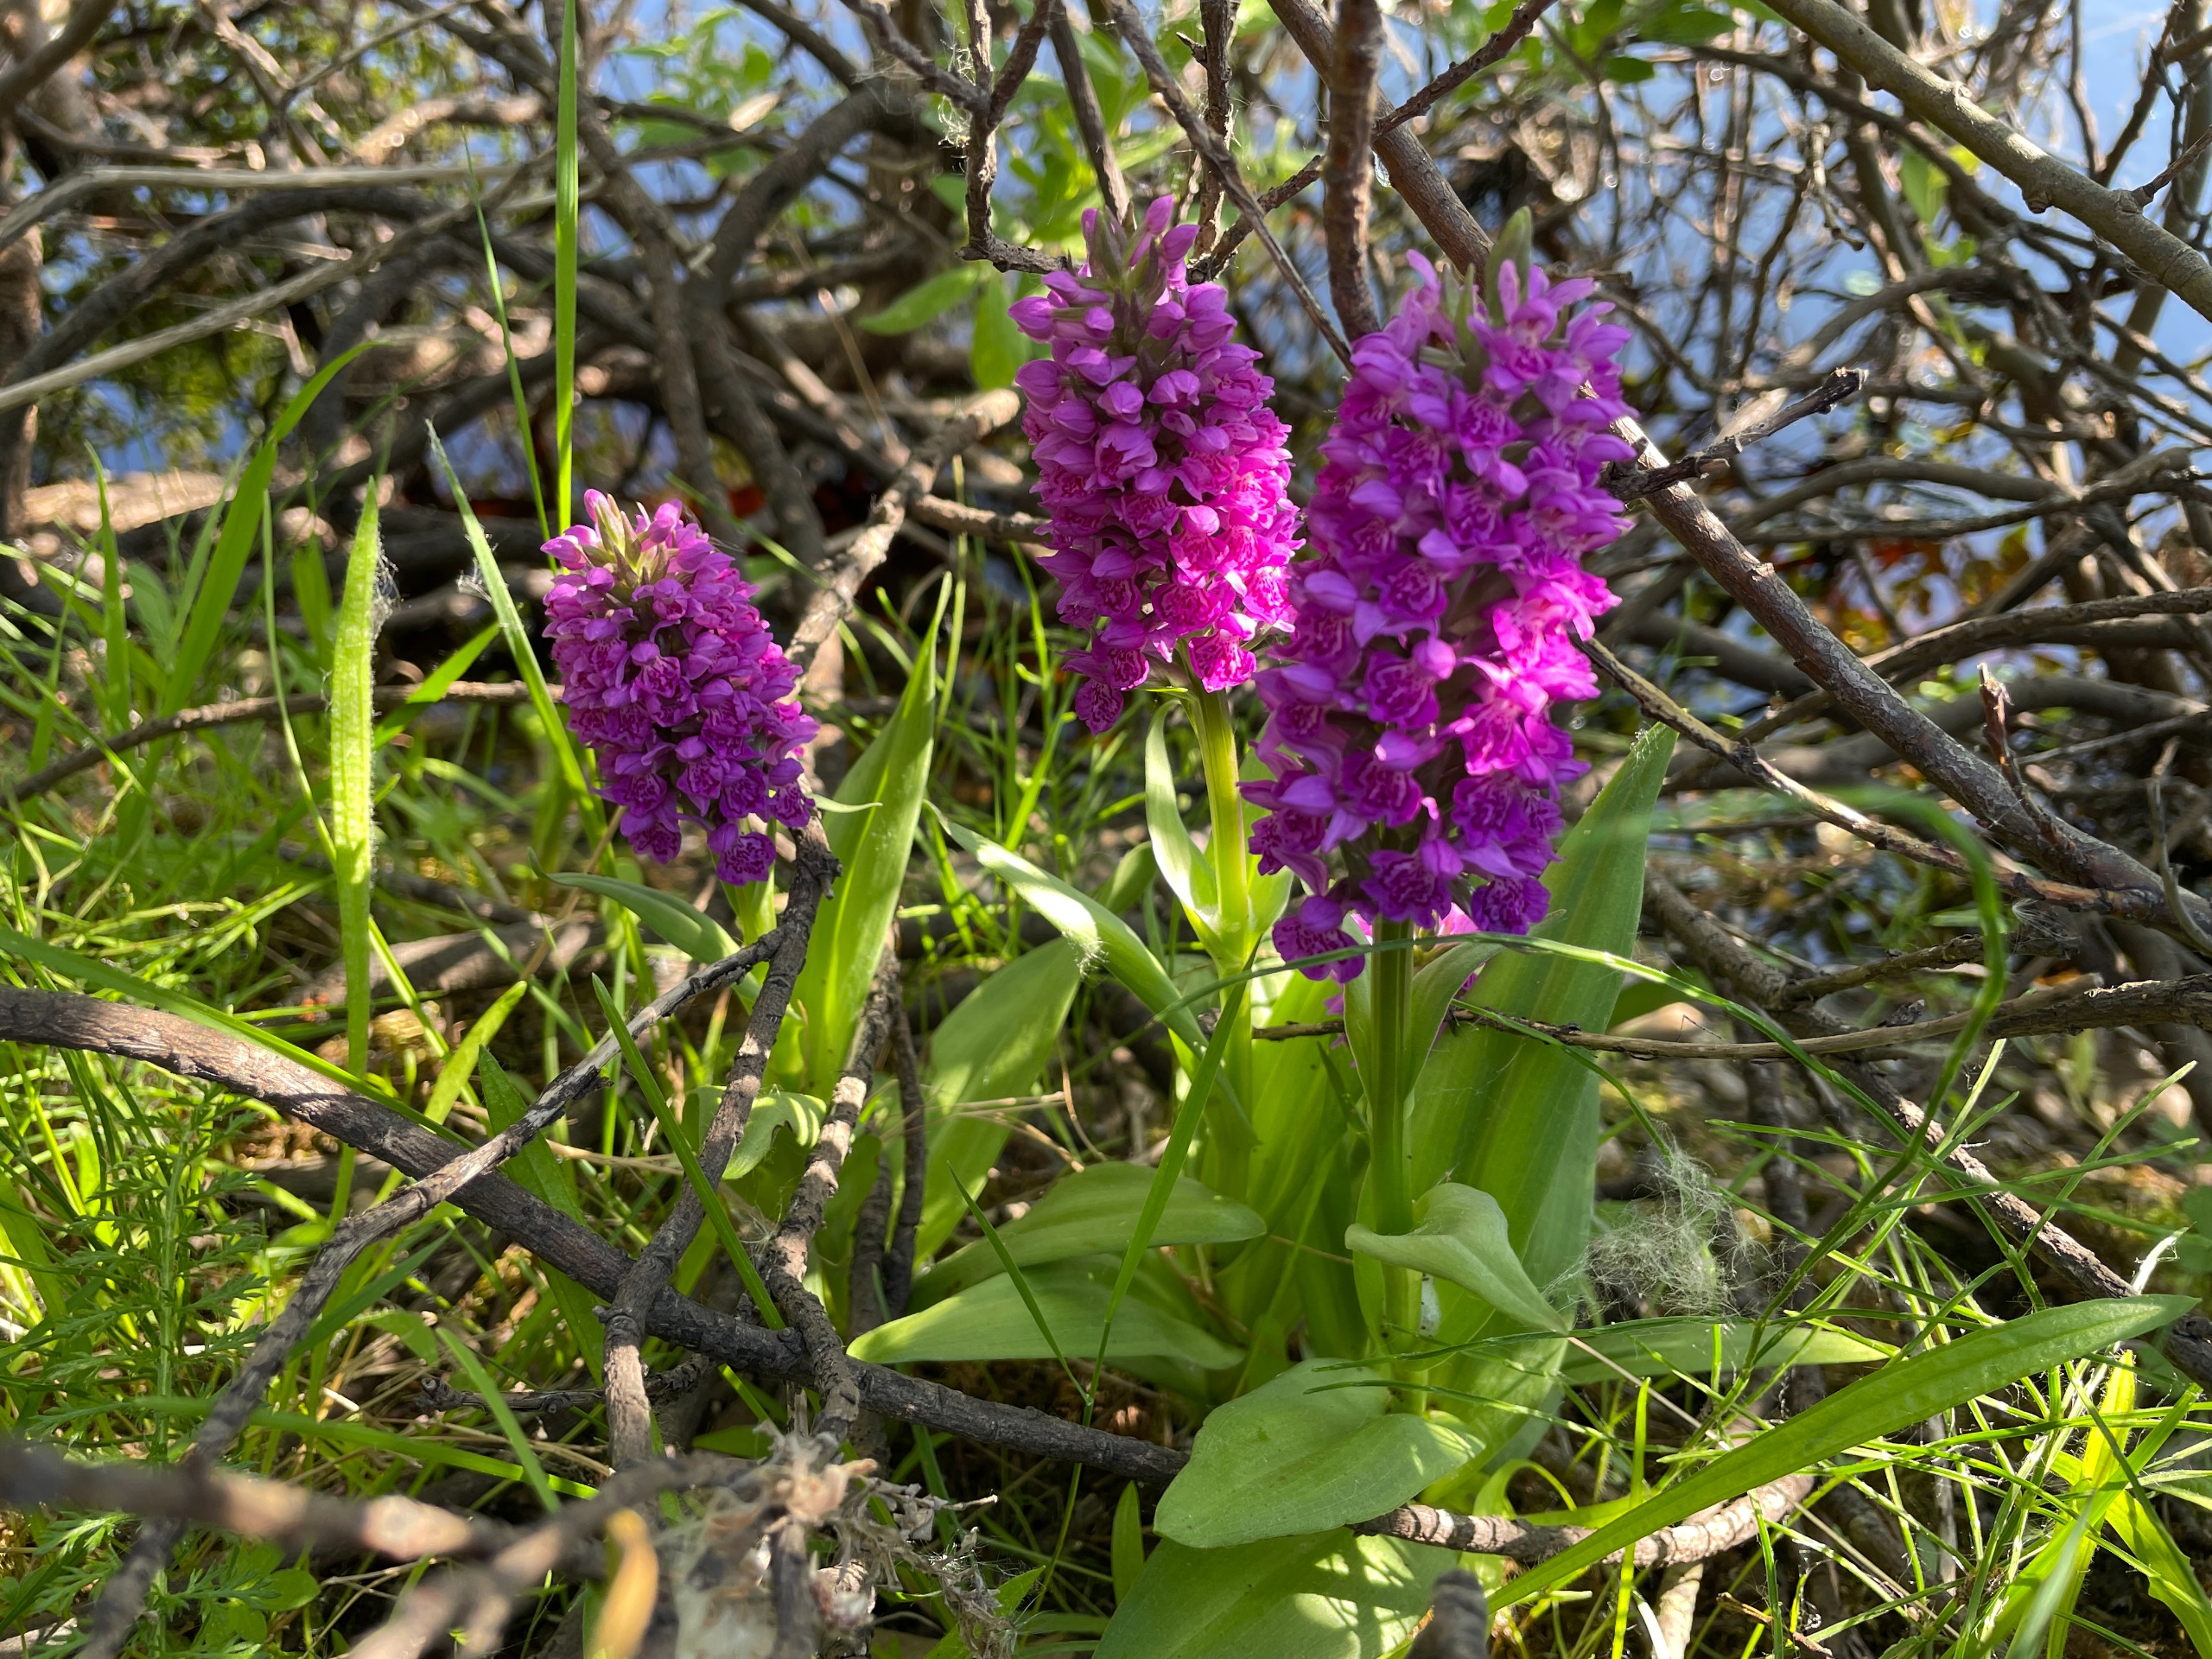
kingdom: Plantae
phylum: Tracheophyta
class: Liliopsida
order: Asparagales
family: Orchidaceae
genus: Dactylorhiza
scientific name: Dactylorhiza majalis
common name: Purpur-gøgeurt
